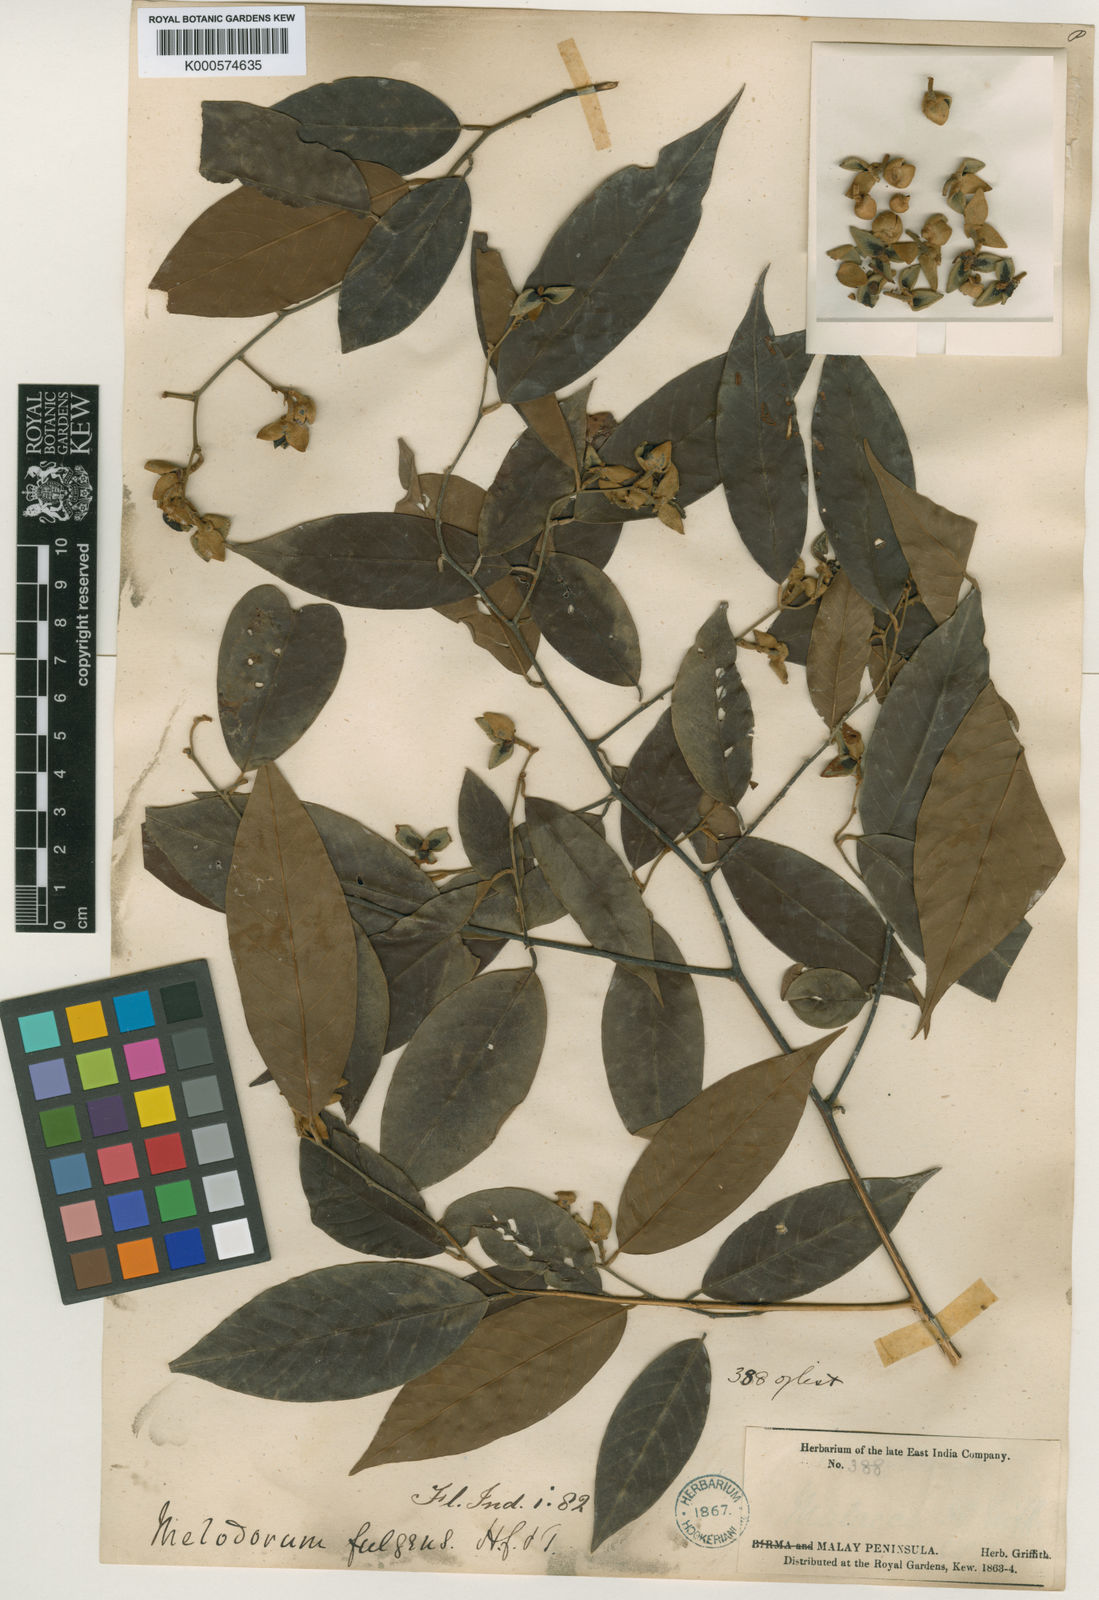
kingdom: Plantae
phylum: Tracheophyta
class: Magnoliopsida
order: Magnoliales
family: Annonaceae
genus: Fissistigma
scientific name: Fissistigma fulgens
